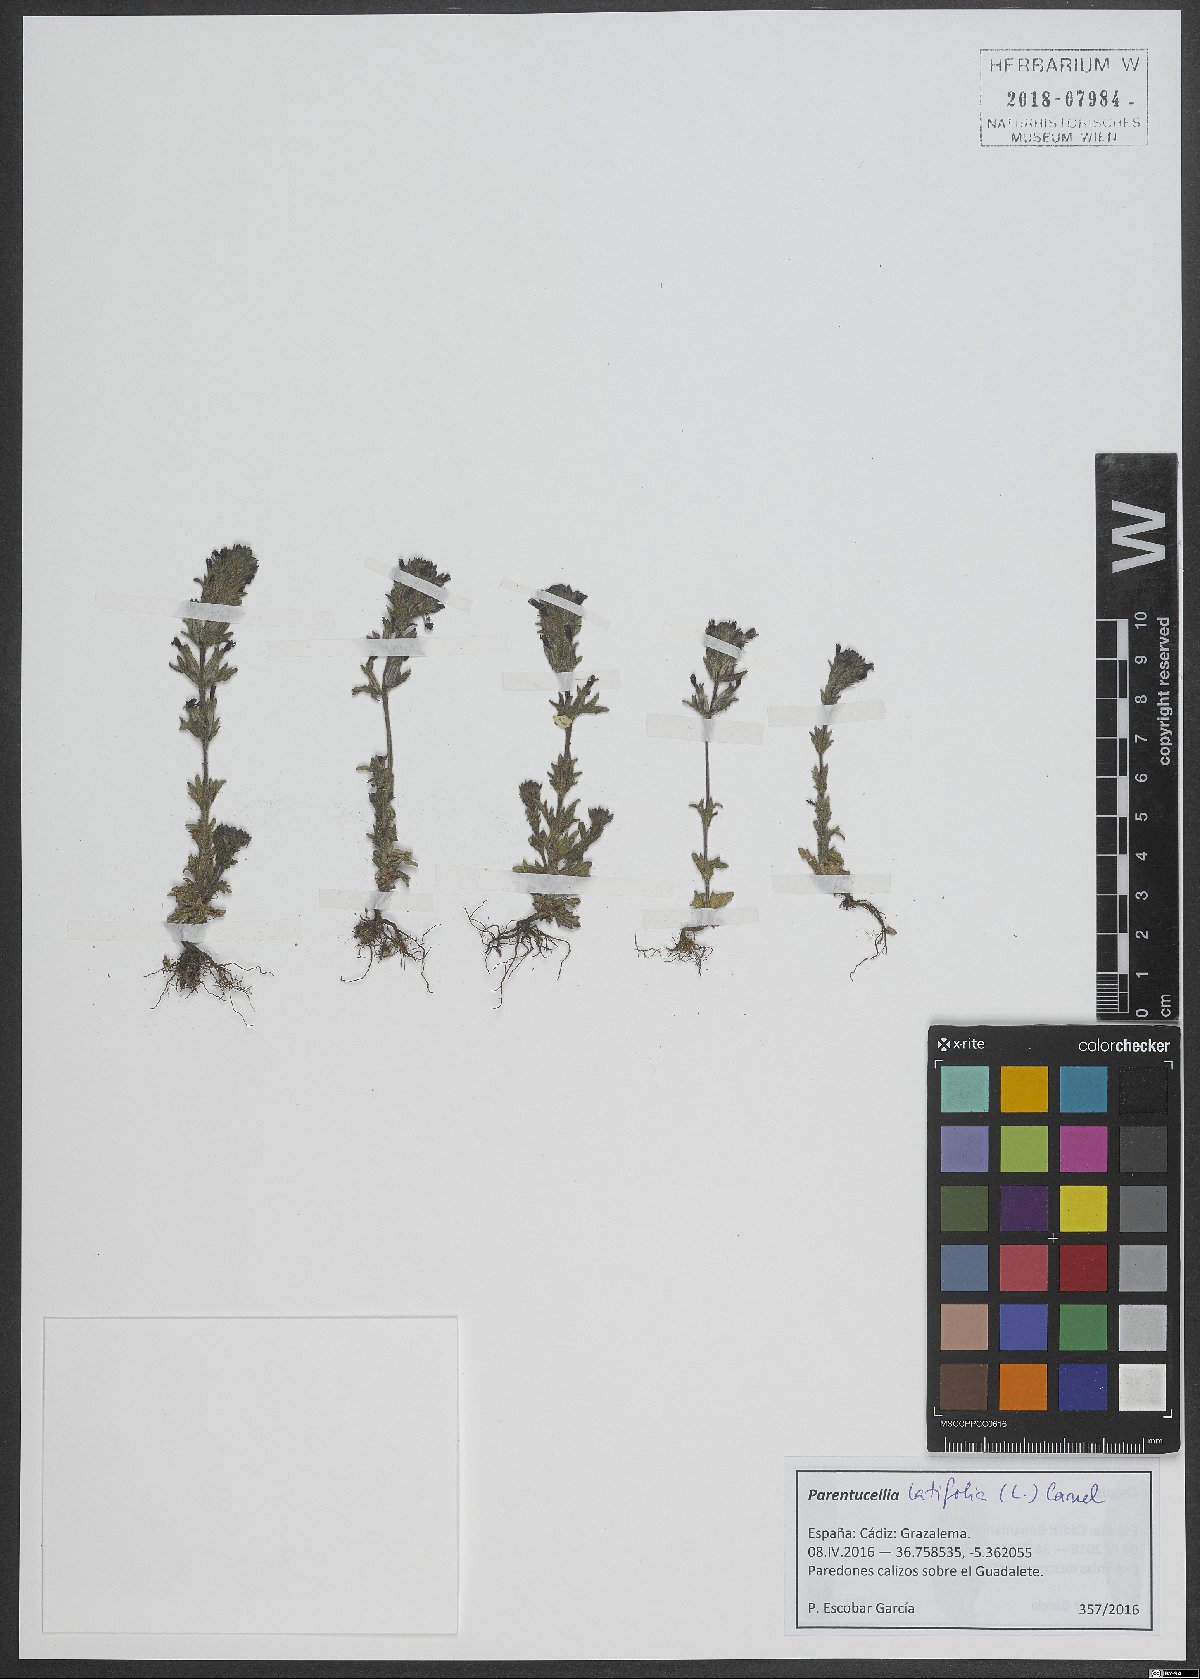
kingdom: Plantae
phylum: Tracheophyta
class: Magnoliopsida
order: Lamiales
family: Orobanchaceae
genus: Parentucellia
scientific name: Parentucellia latifolia
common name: Broadleaf glandweed
